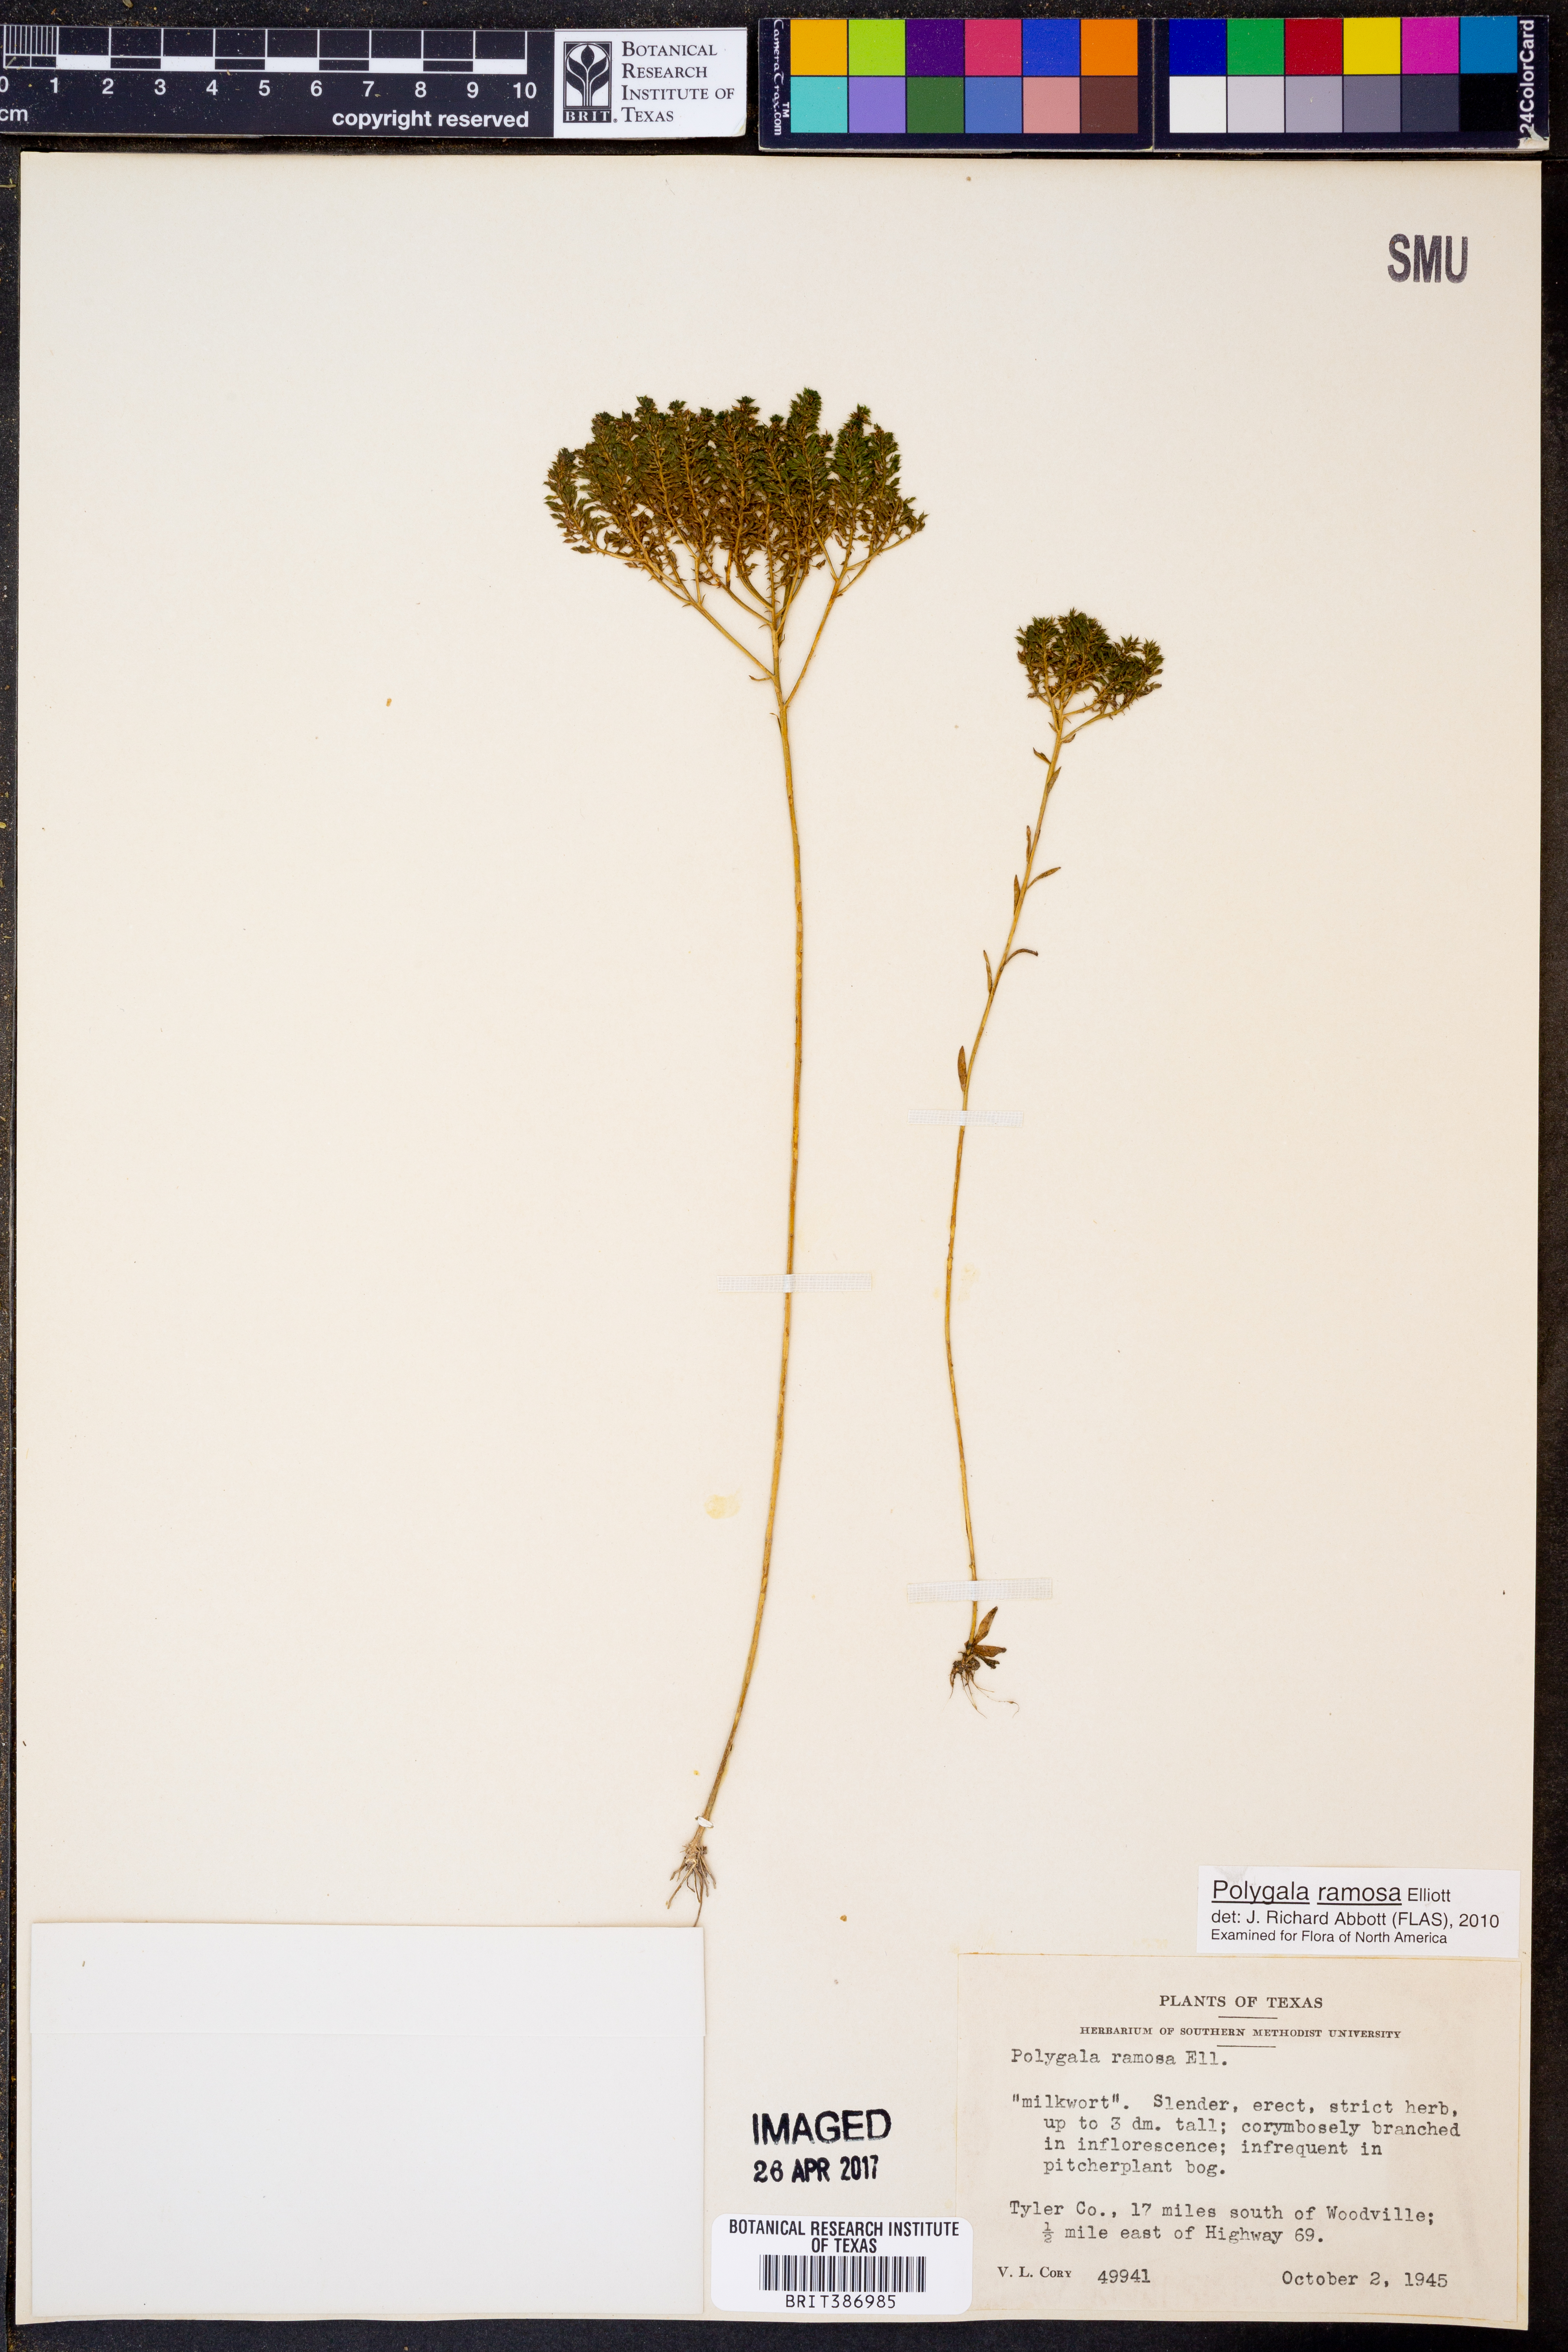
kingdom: Plantae
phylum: Tracheophyta
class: Magnoliopsida
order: Fabales
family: Polygalaceae
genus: Polygala
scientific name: Polygala ramosa
